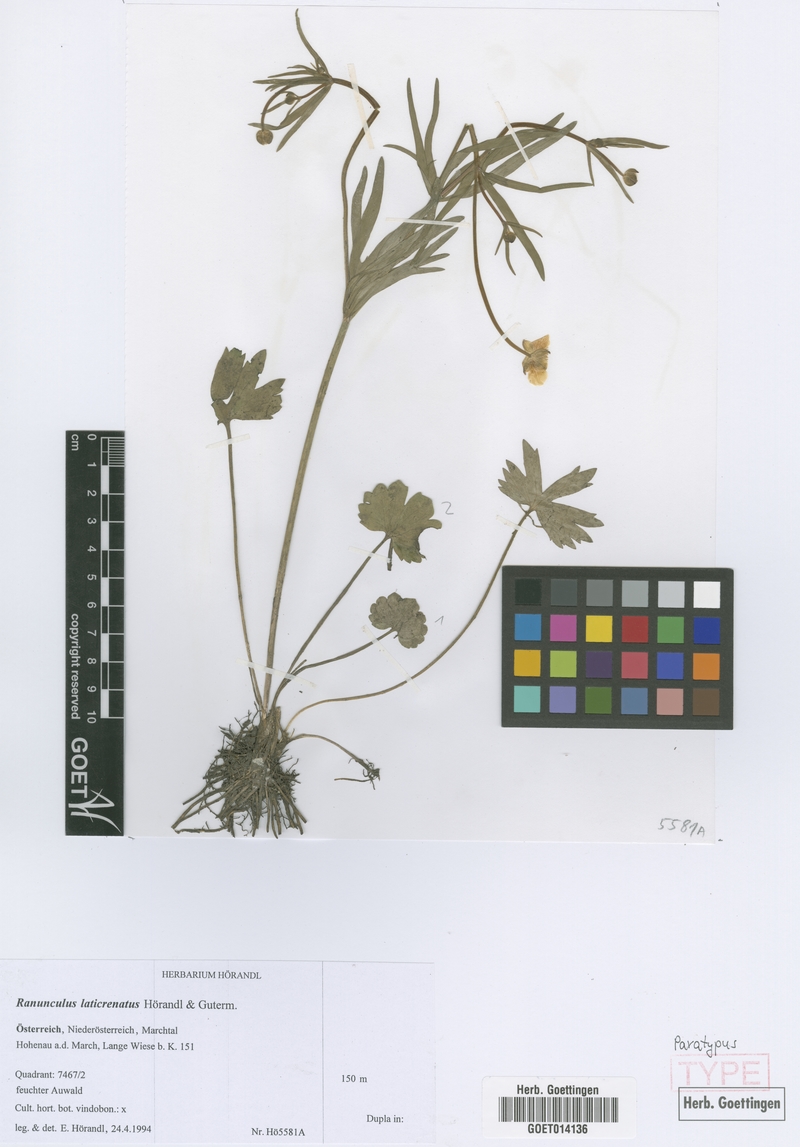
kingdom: Plantae
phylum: Tracheophyta
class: Magnoliopsida
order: Ranunculales
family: Ranunculaceae
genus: Ranunculus
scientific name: Ranunculus laticrenatus
